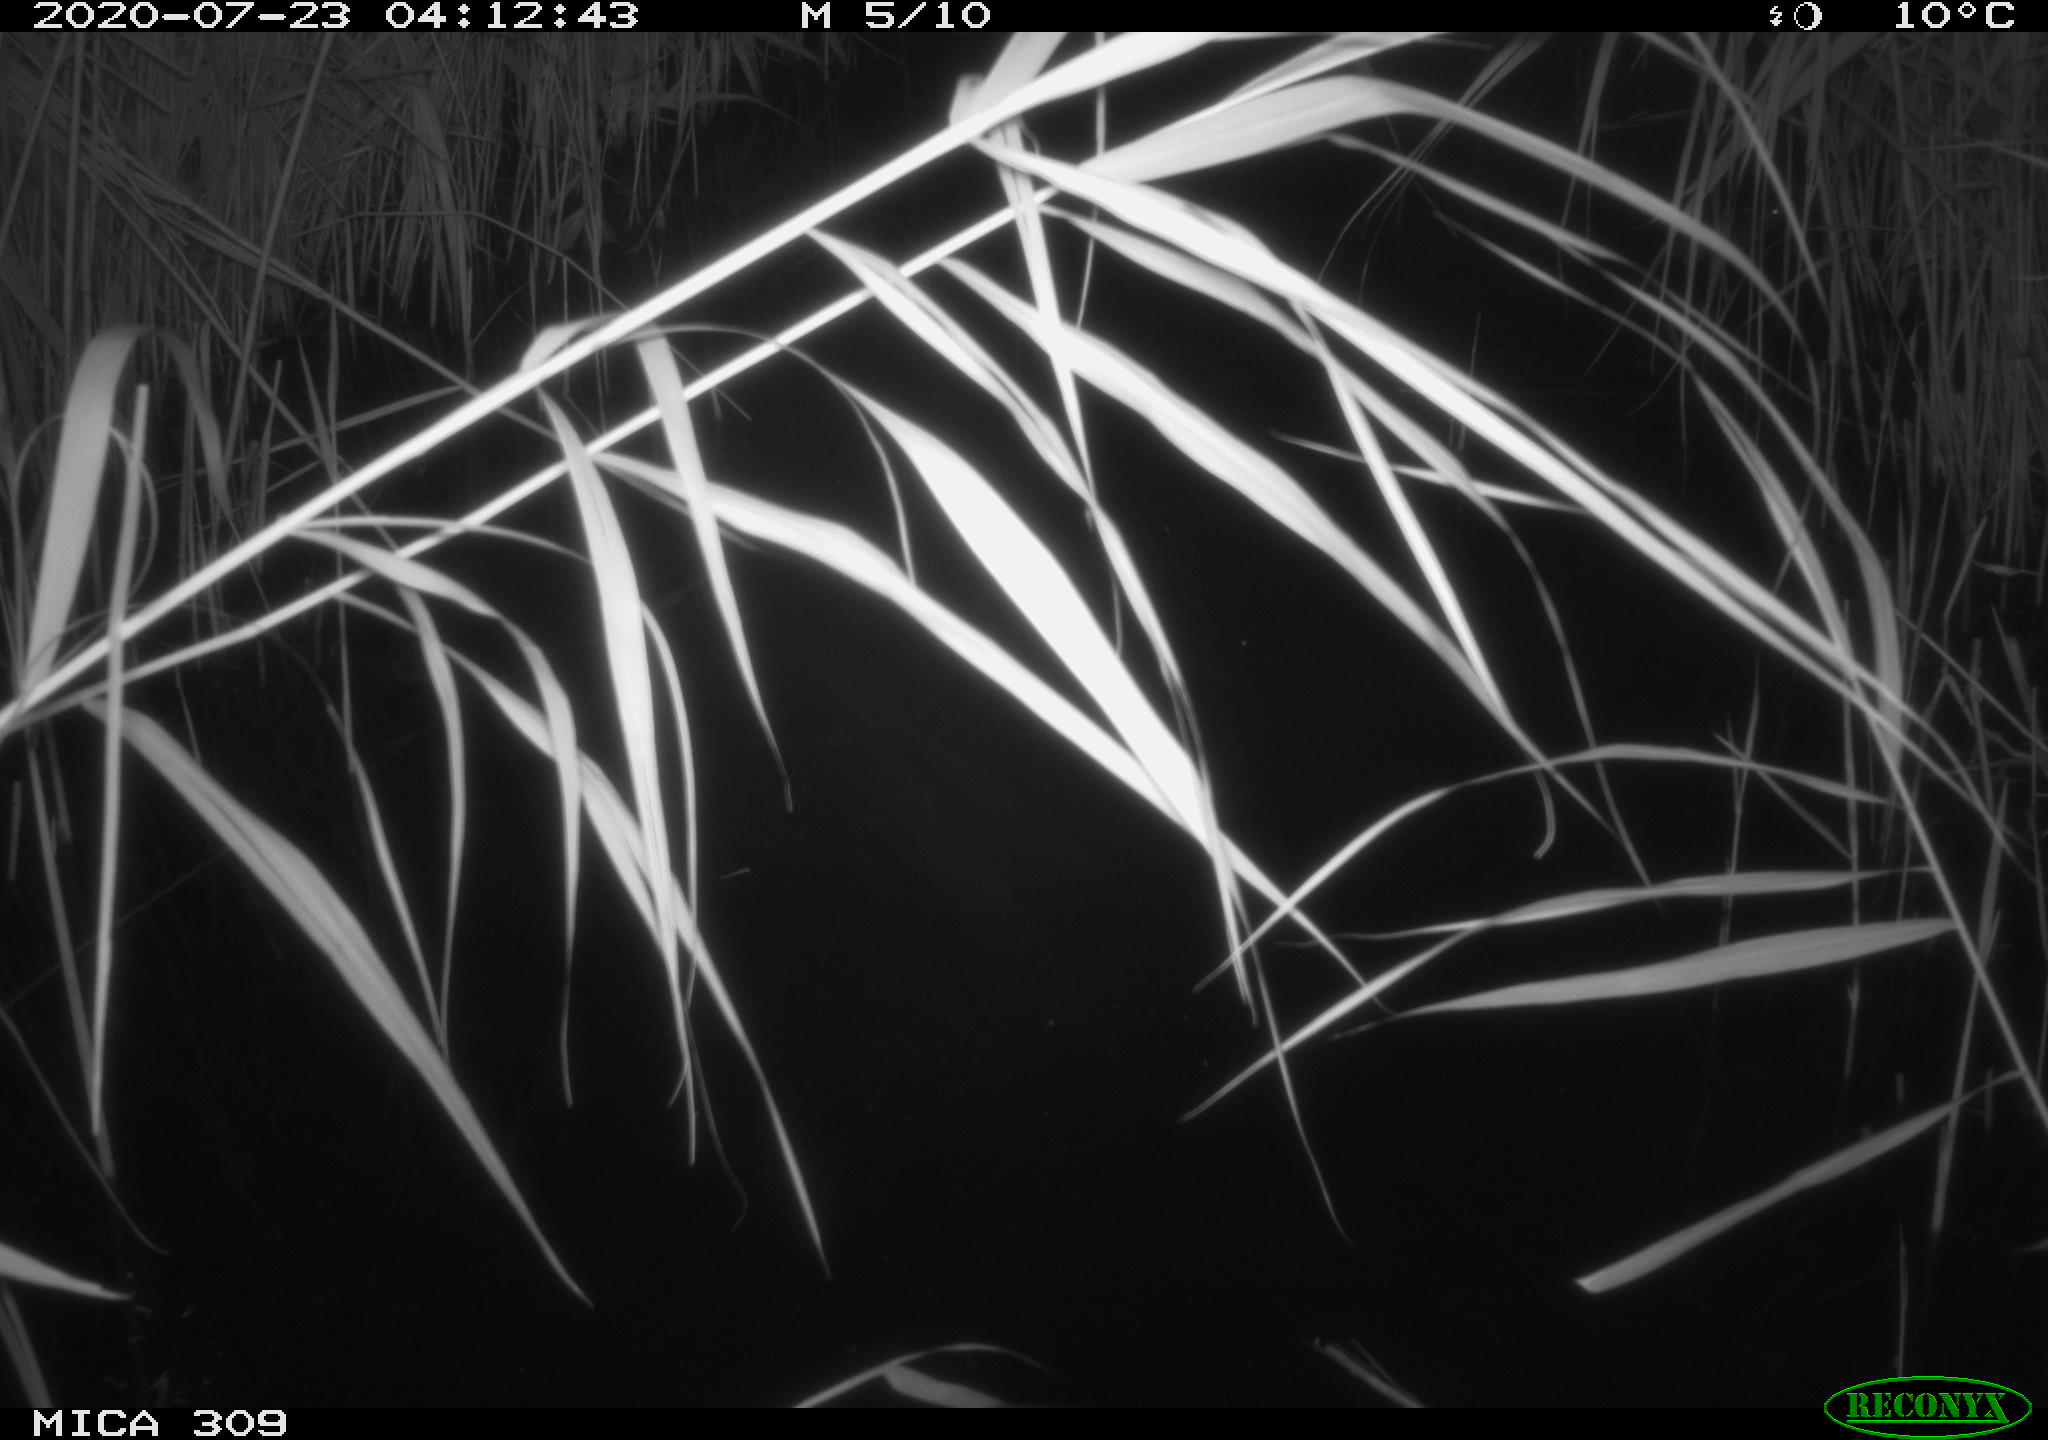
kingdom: Animalia
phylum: Chordata
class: Mammalia
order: Rodentia
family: Muridae
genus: Rattus
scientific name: Rattus norvegicus
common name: Brown rat
